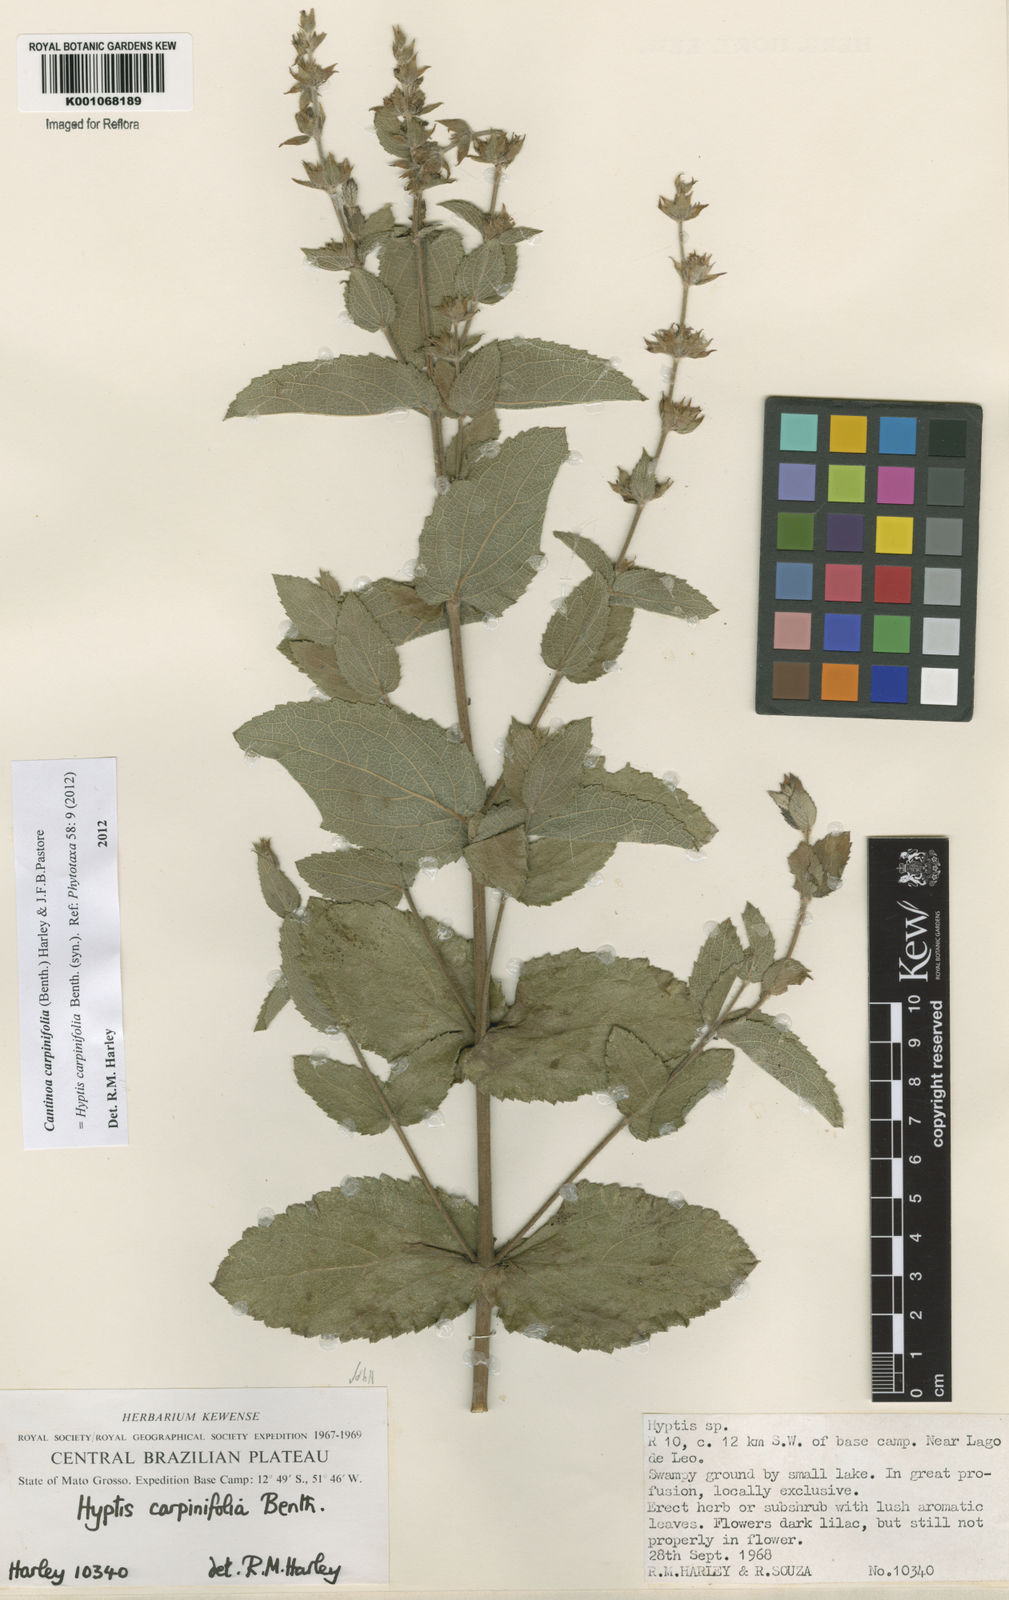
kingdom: Plantae
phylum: Tracheophyta
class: Magnoliopsida
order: Lamiales
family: Lamiaceae
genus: Cantinoa
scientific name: Cantinoa carpinifolia
